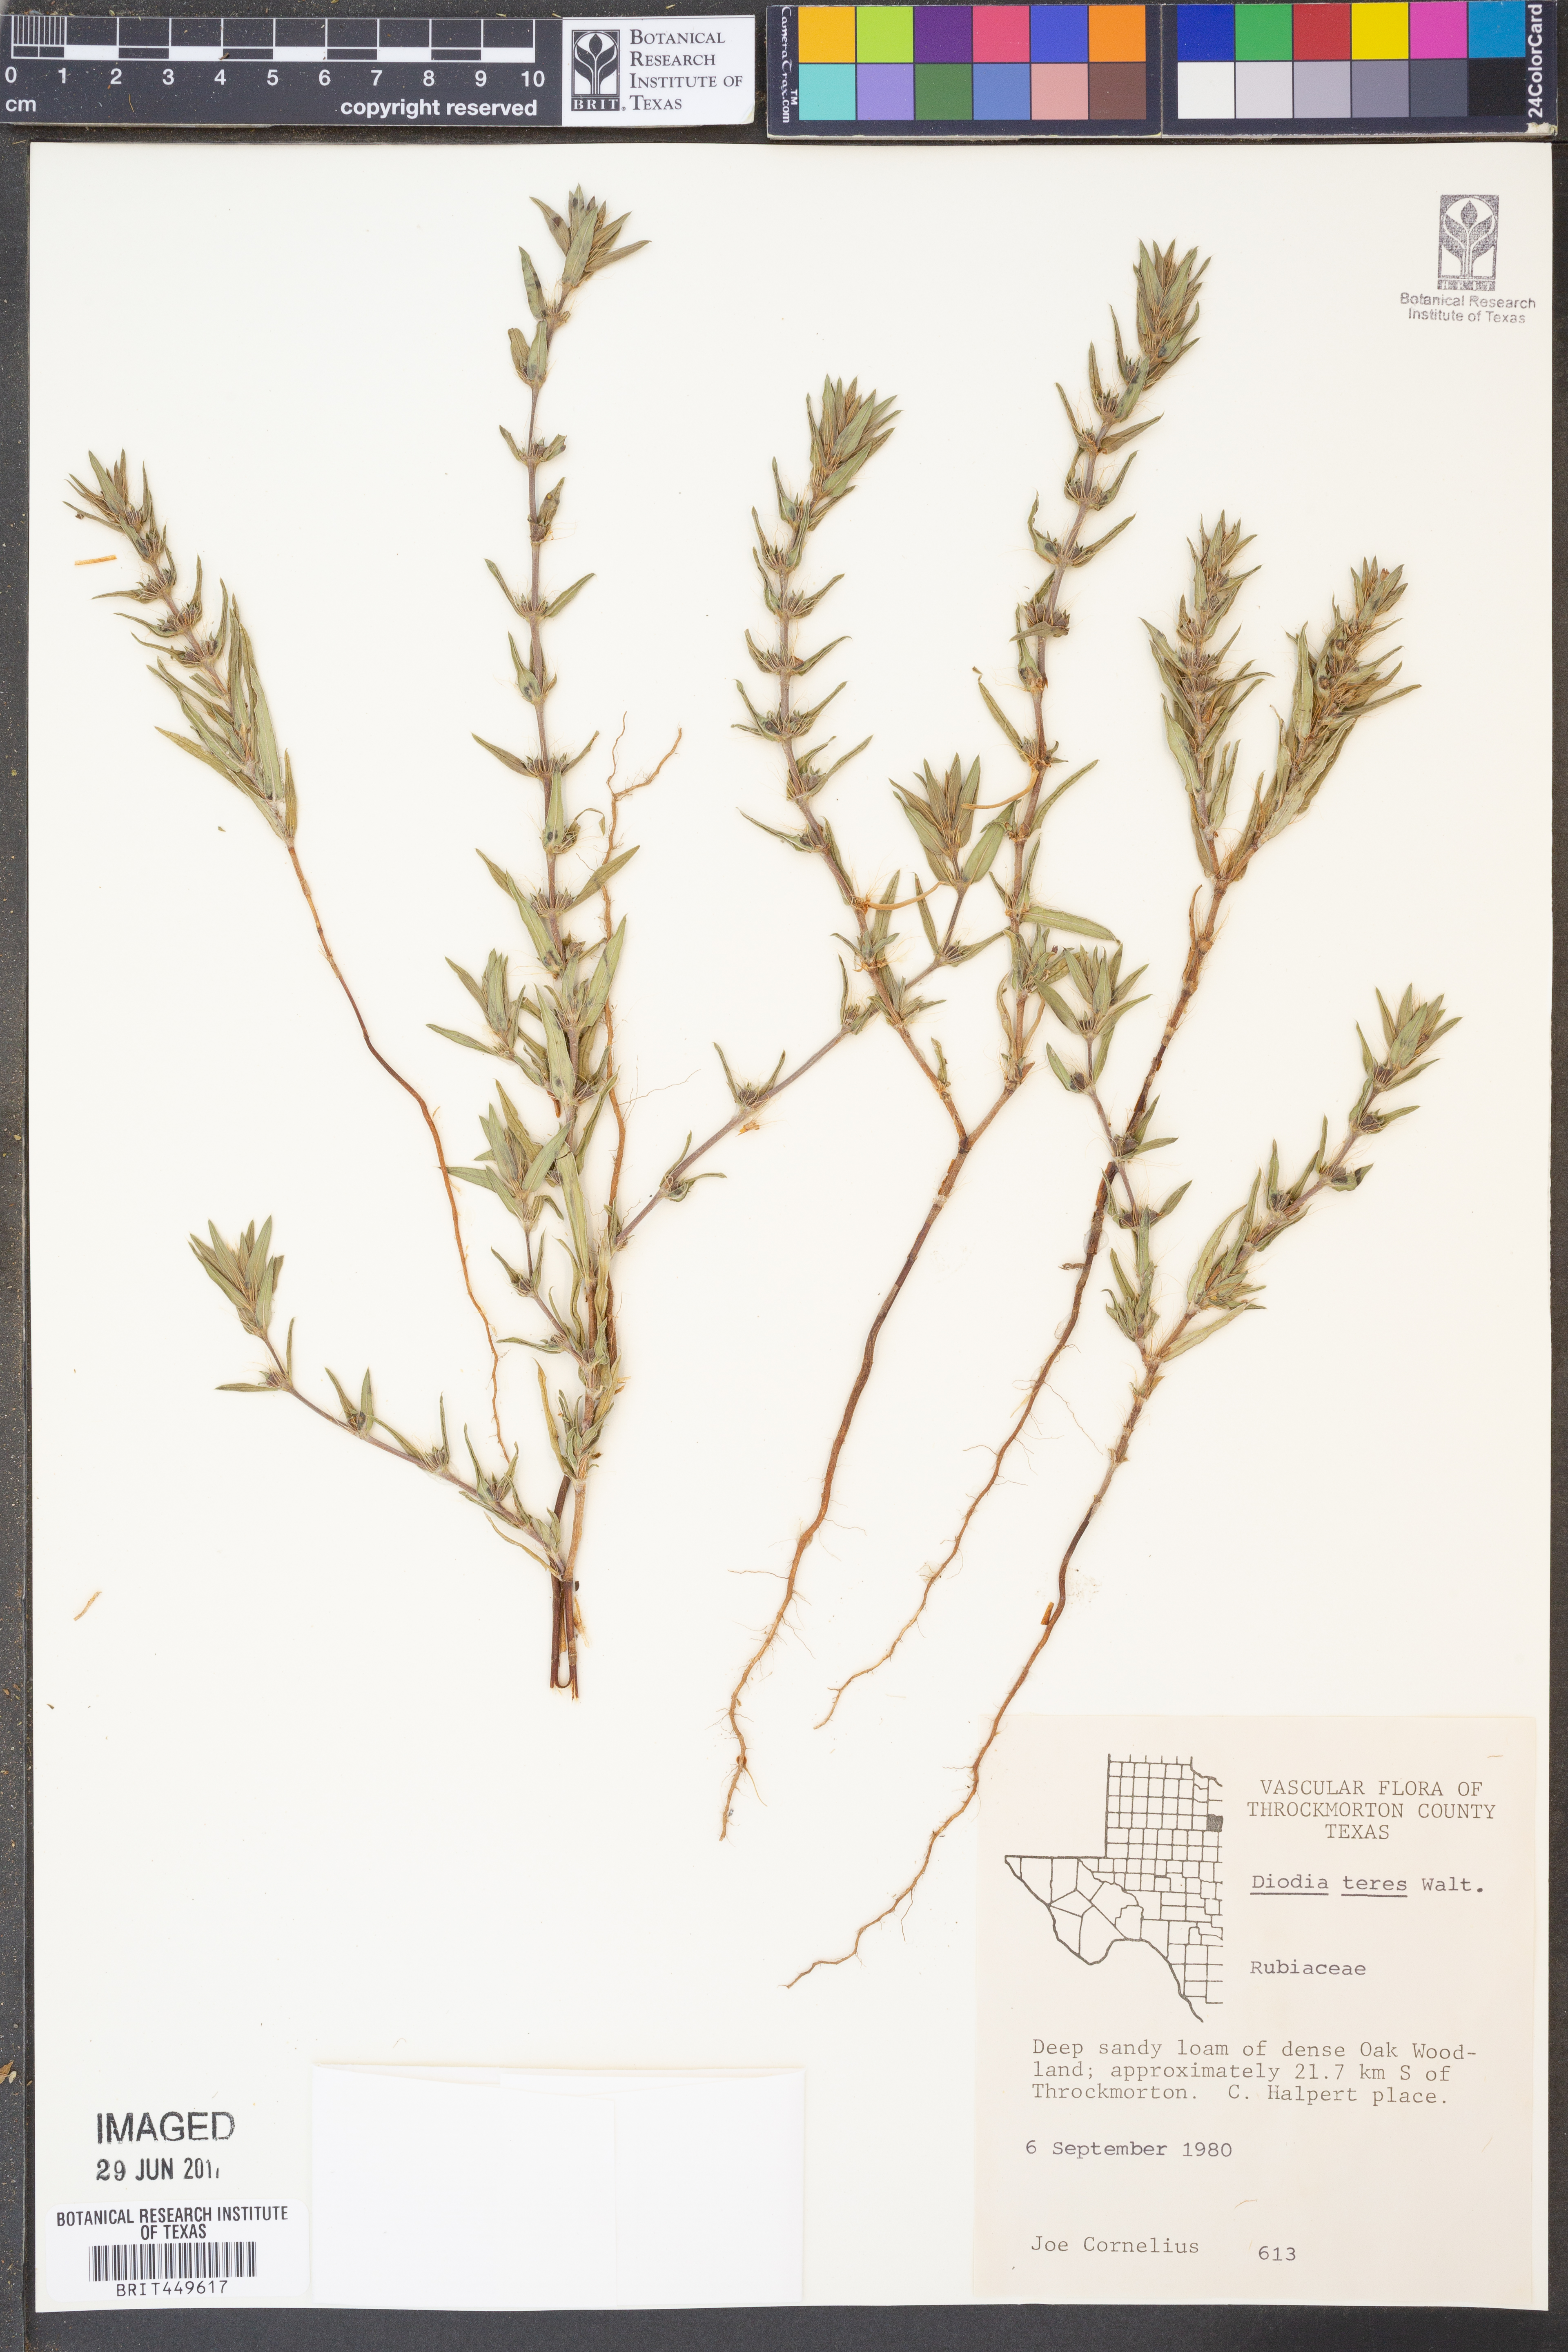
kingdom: Plantae
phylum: Tracheophyta
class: Magnoliopsida
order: Gentianales
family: Rubiaceae
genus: Hexasepalum
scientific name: Hexasepalum teres
